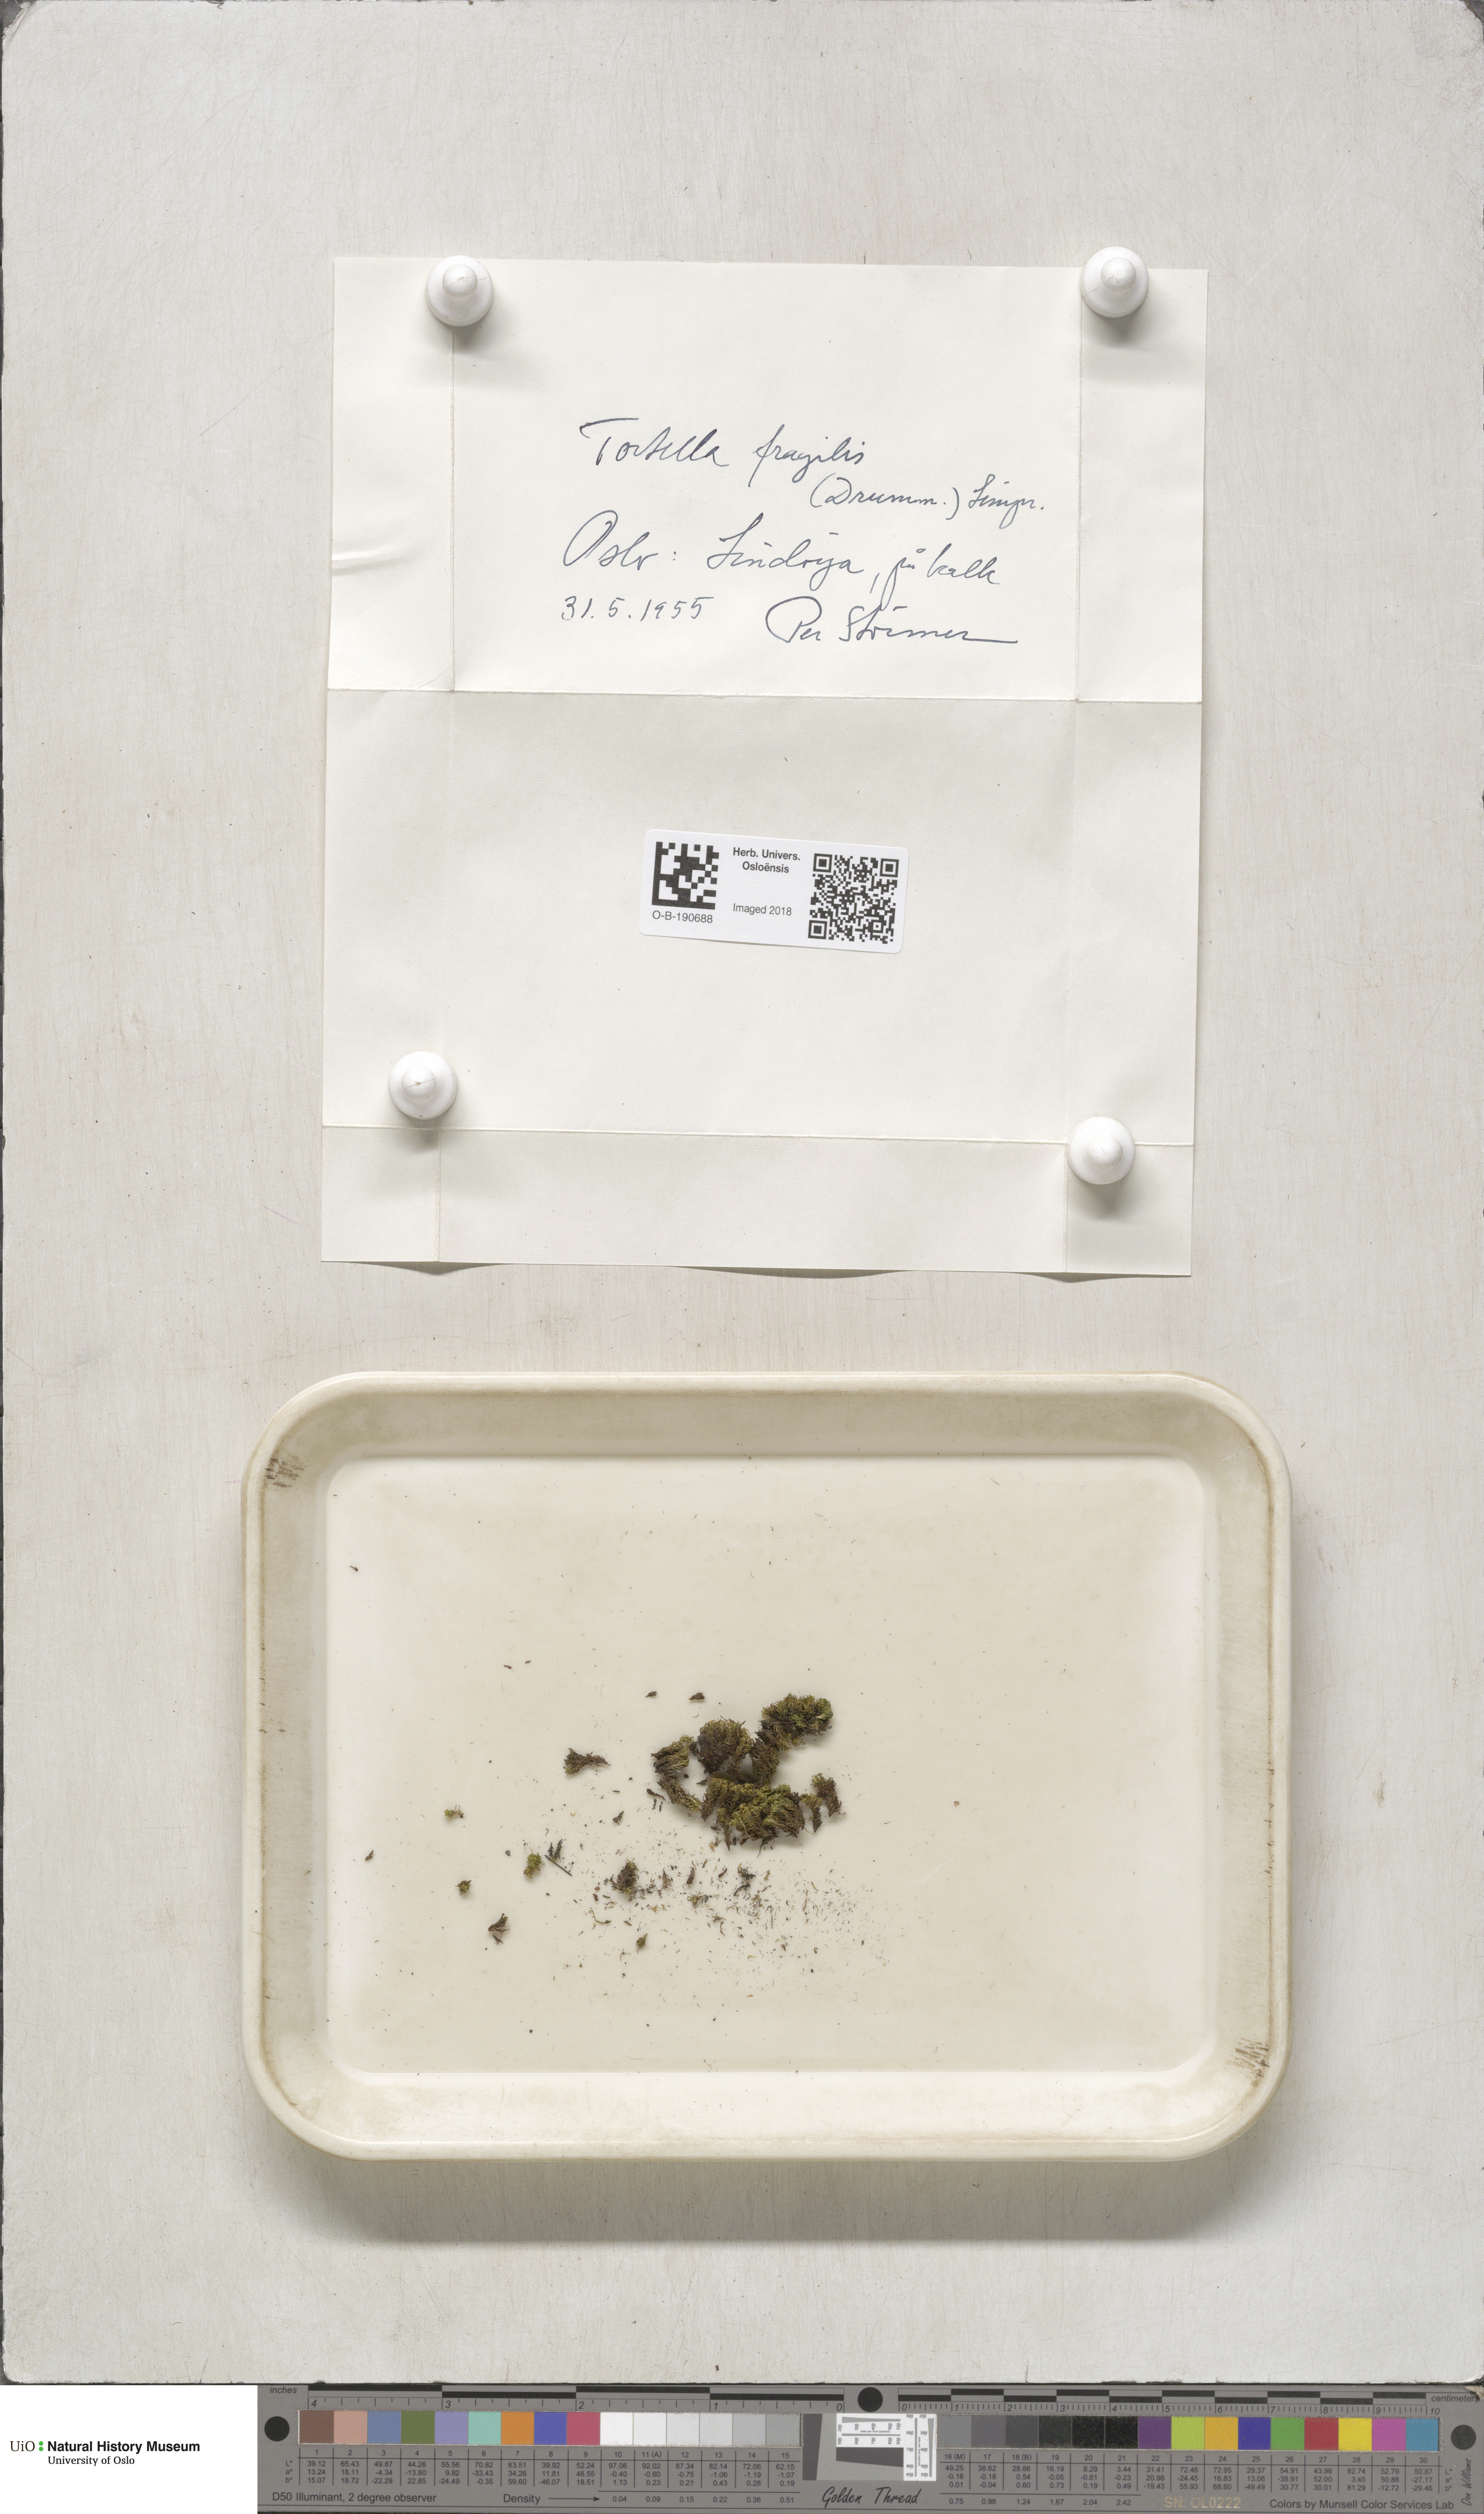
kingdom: Plantae
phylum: Bryophyta
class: Bryopsida
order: Pottiales
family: Pottiaceae
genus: Tortella
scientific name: Tortella fragilis
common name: Fragile twisted moss
